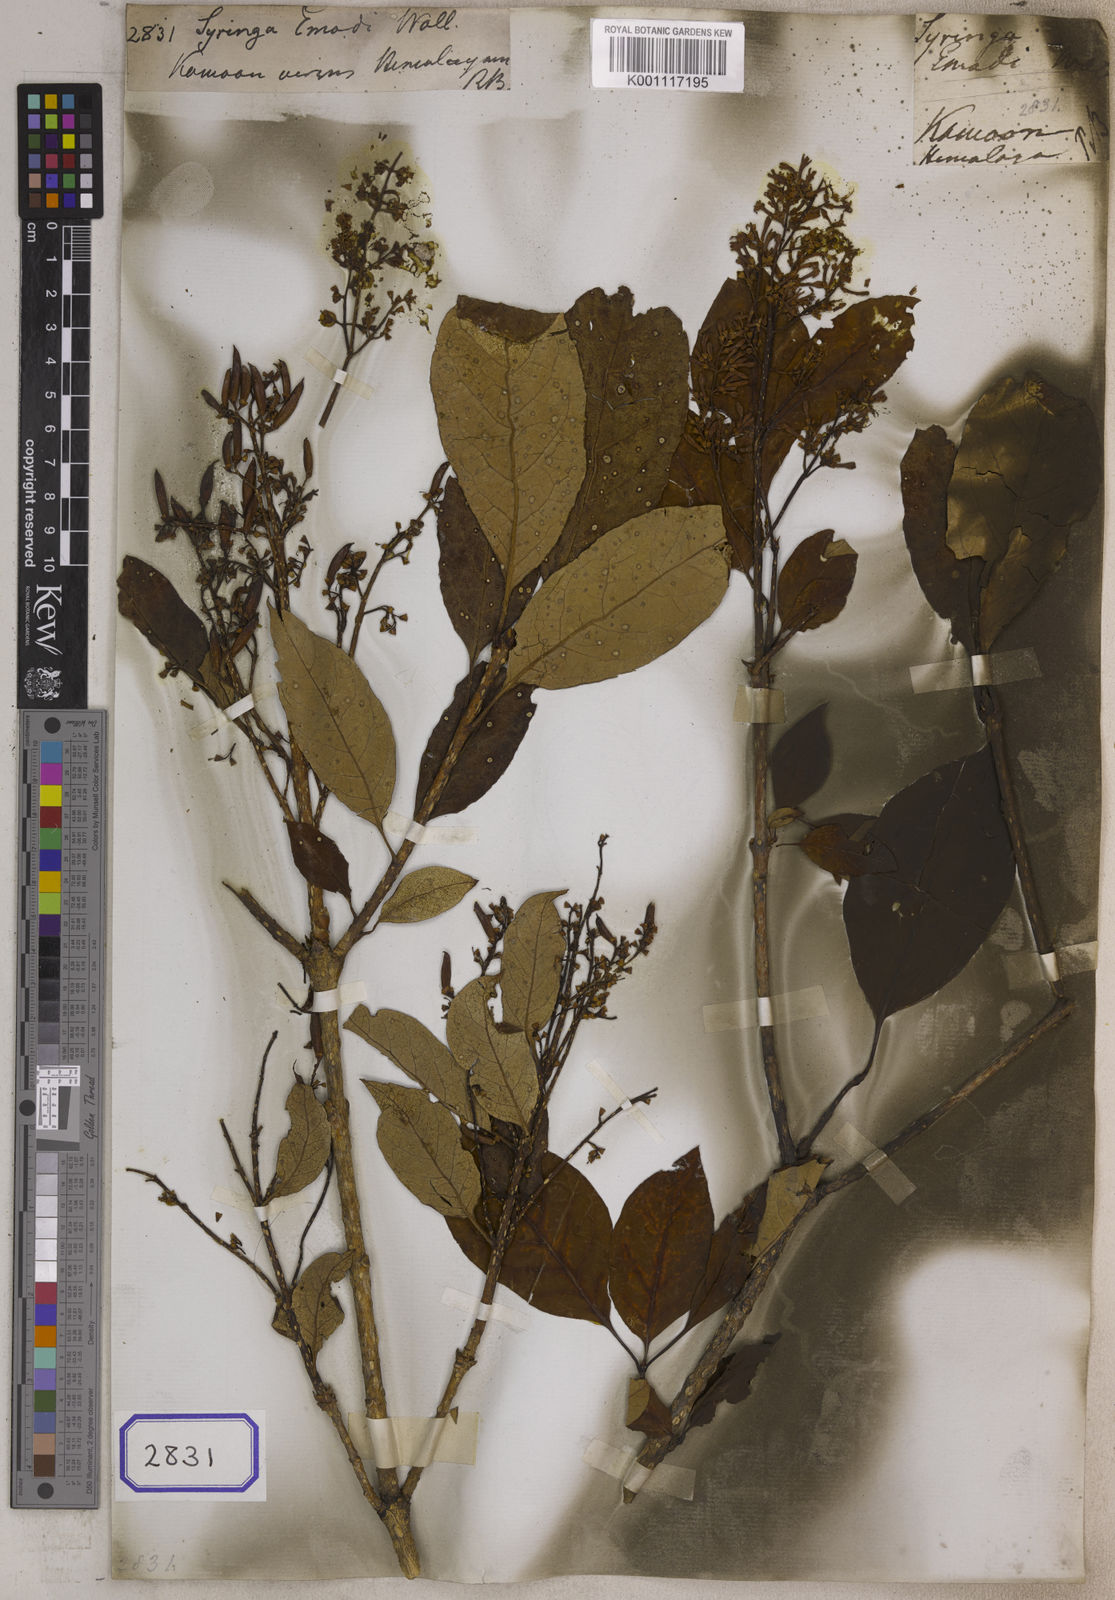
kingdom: Plantae
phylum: Tracheophyta
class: Magnoliopsida
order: Lamiales
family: Oleaceae
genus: Syringa
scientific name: Syringa
